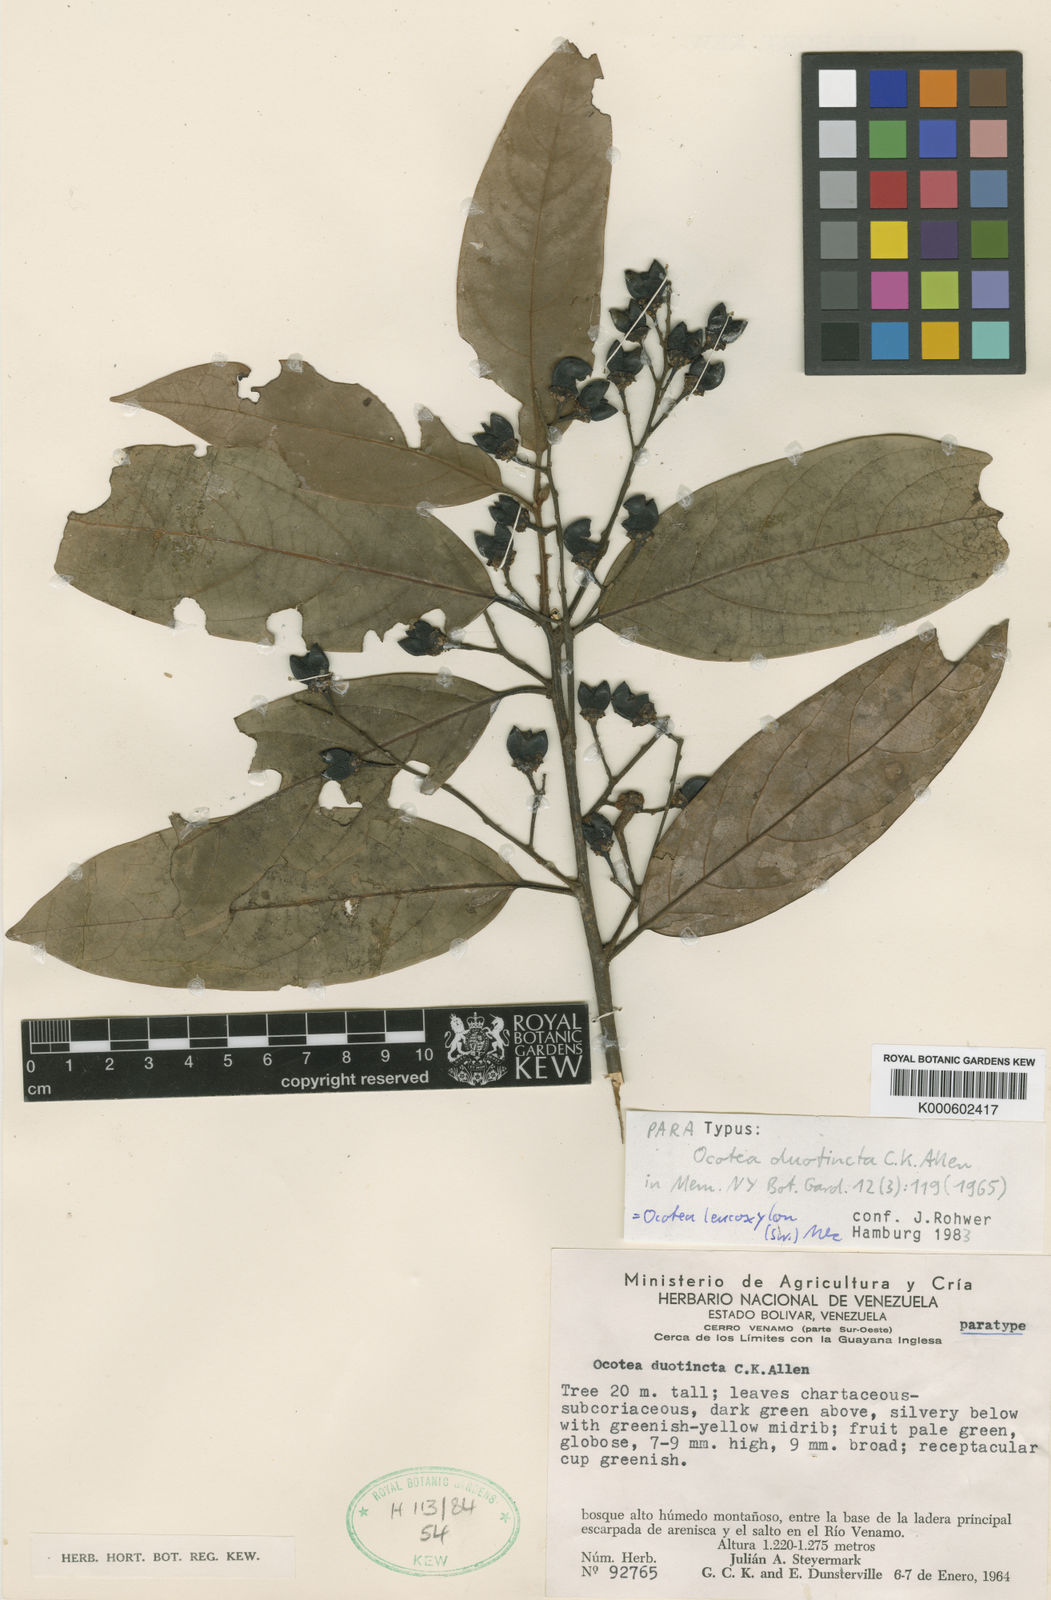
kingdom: Plantae
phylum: Tracheophyta
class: Magnoliopsida
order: Laurales
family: Lauraceae
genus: Ocotea
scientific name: Ocotea
